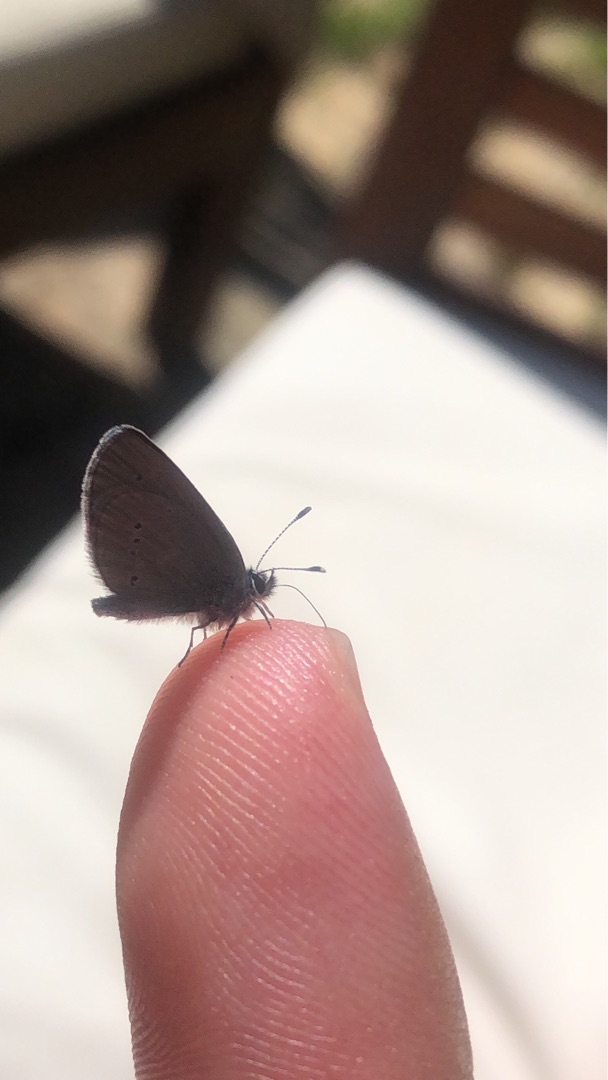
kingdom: Animalia
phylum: Arthropoda
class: Insecta
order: Lepidoptera
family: Lycaenidae
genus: Cupido
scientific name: Cupido minimus
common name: Dværgblåfugl
